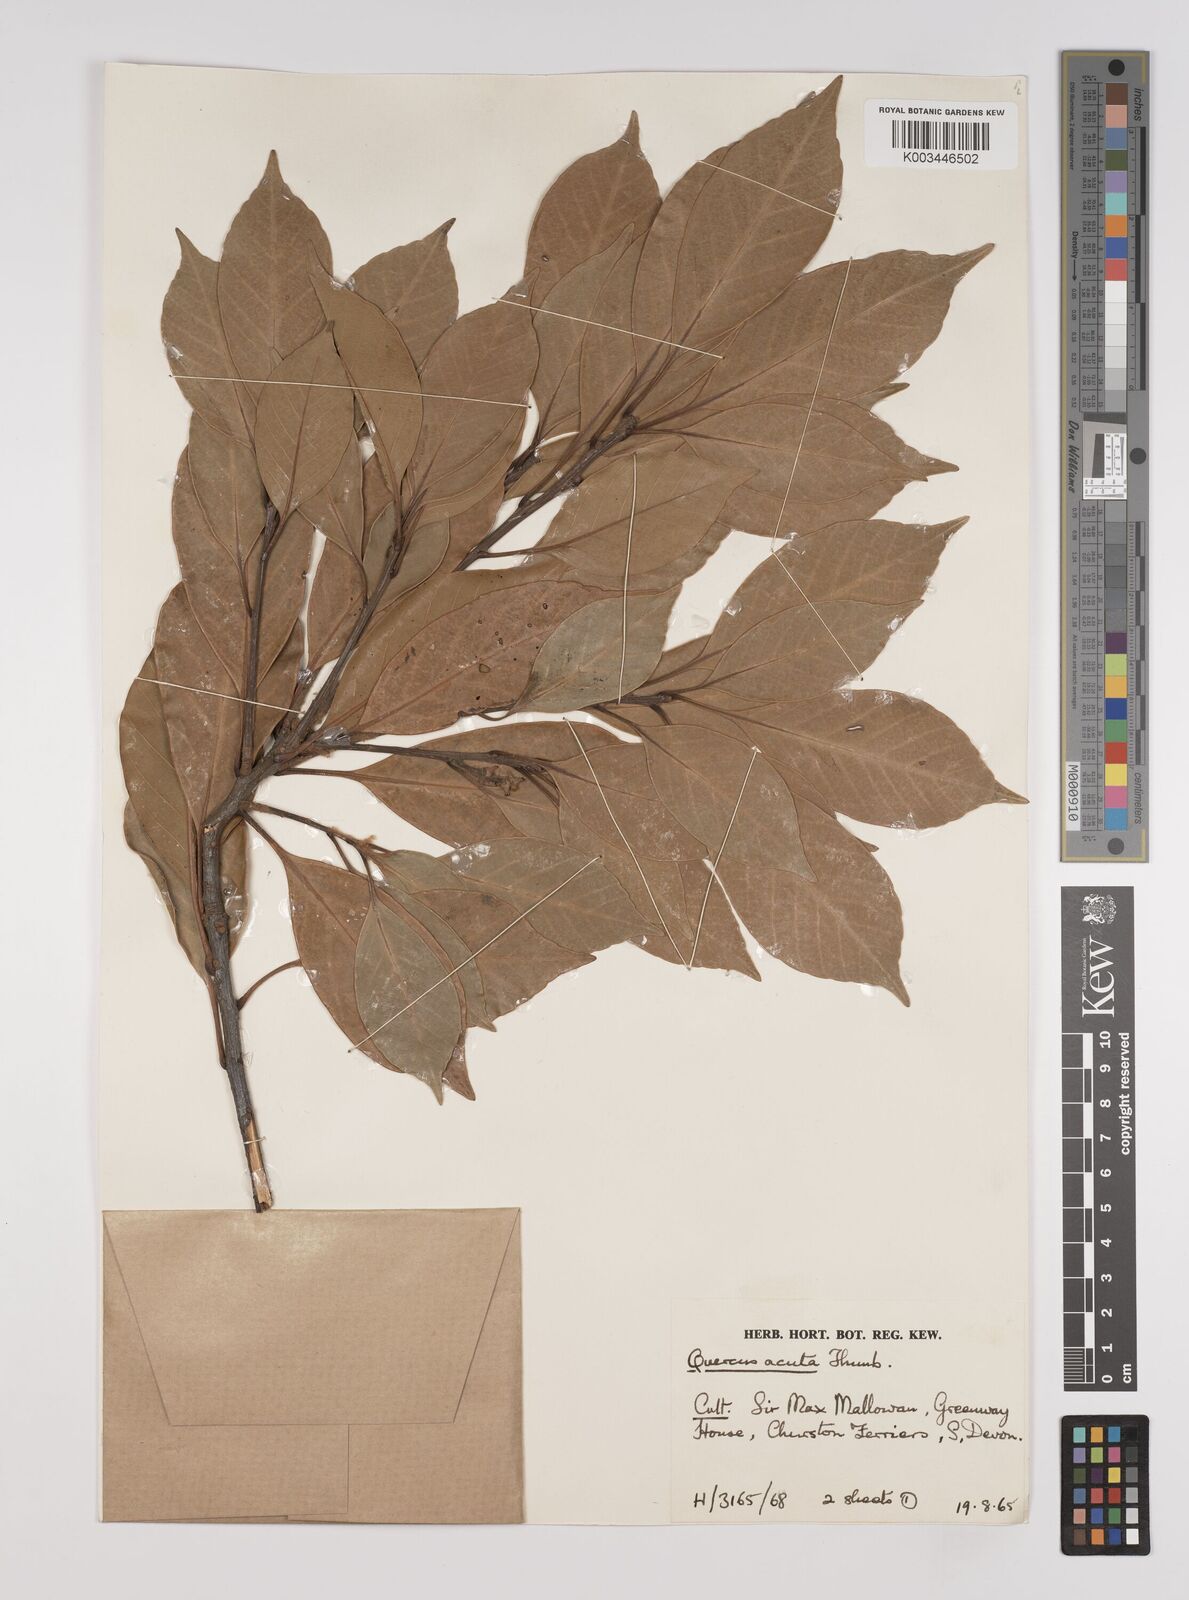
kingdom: Plantae
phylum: Tracheophyta
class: Magnoliopsida
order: Fagales
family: Fagaceae
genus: Quercus
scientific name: Quercus coccinea
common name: Scarlet oak
